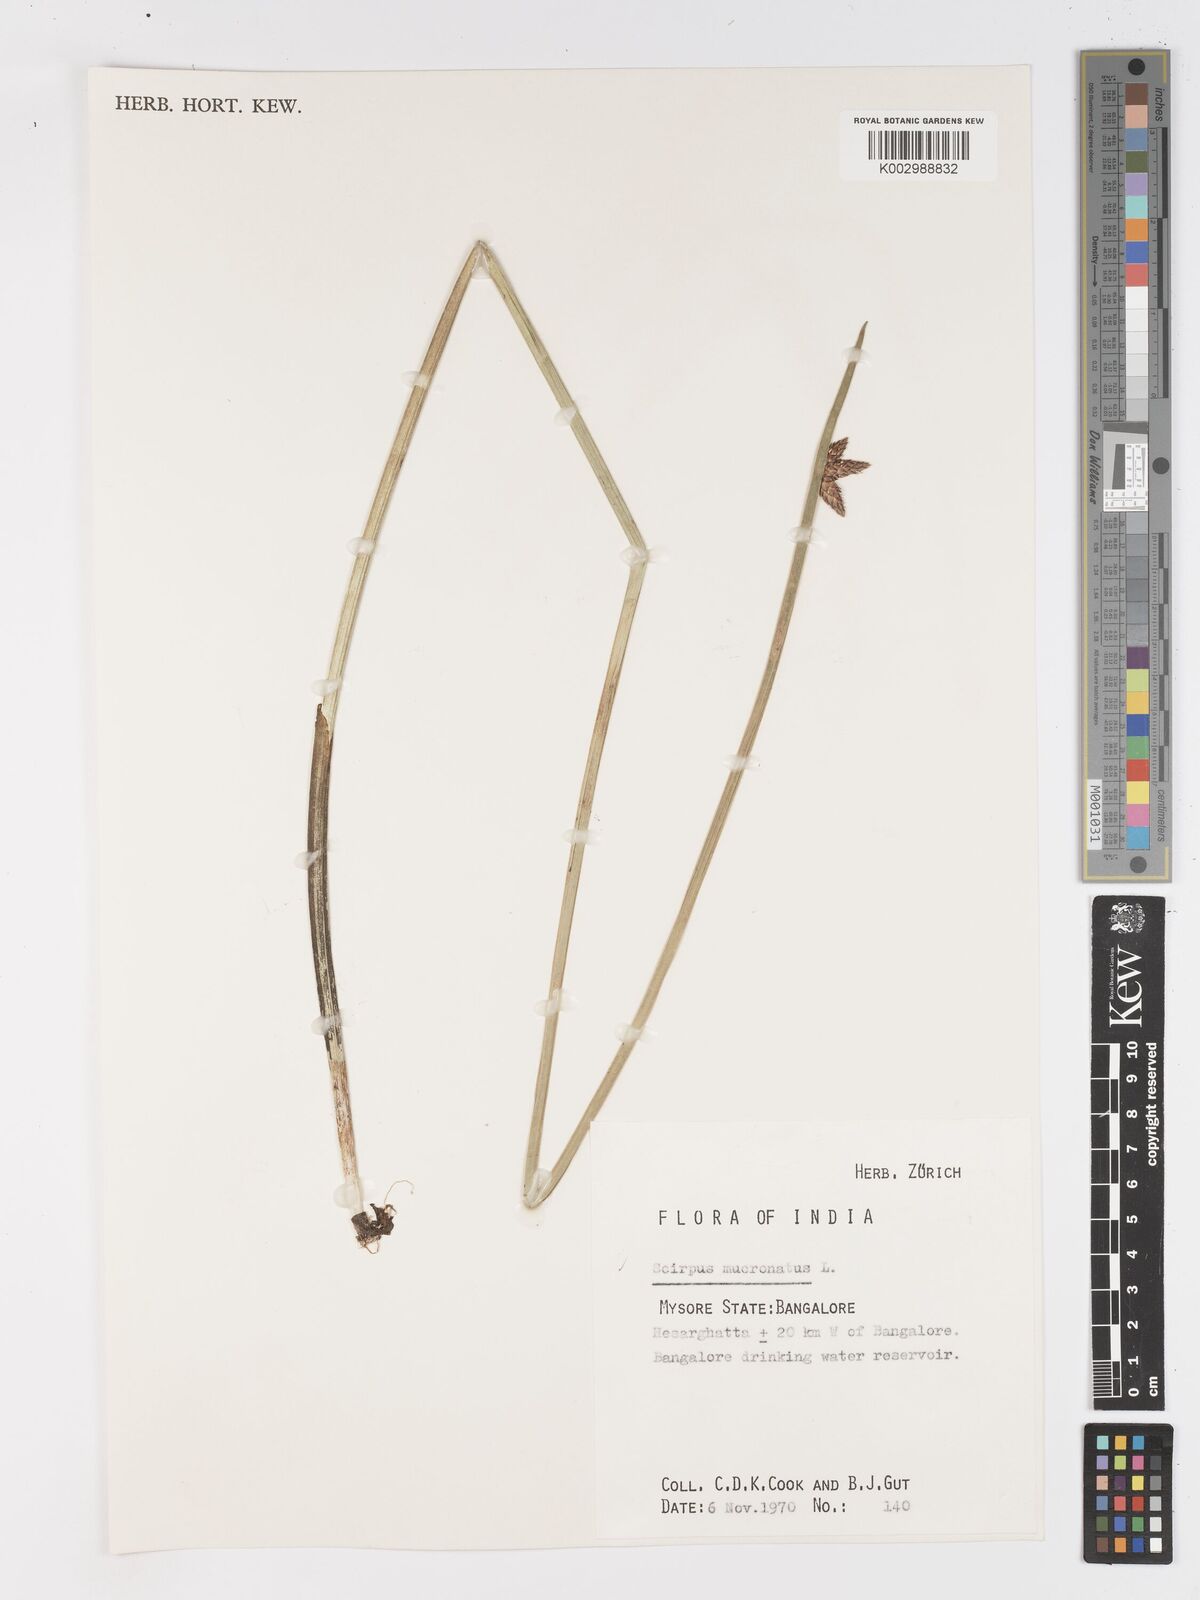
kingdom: Plantae
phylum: Tracheophyta
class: Liliopsida
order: Poales
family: Cyperaceae
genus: Schoenoplectiella
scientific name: Schoenoplectiella mucronata
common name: Bog bulrush
